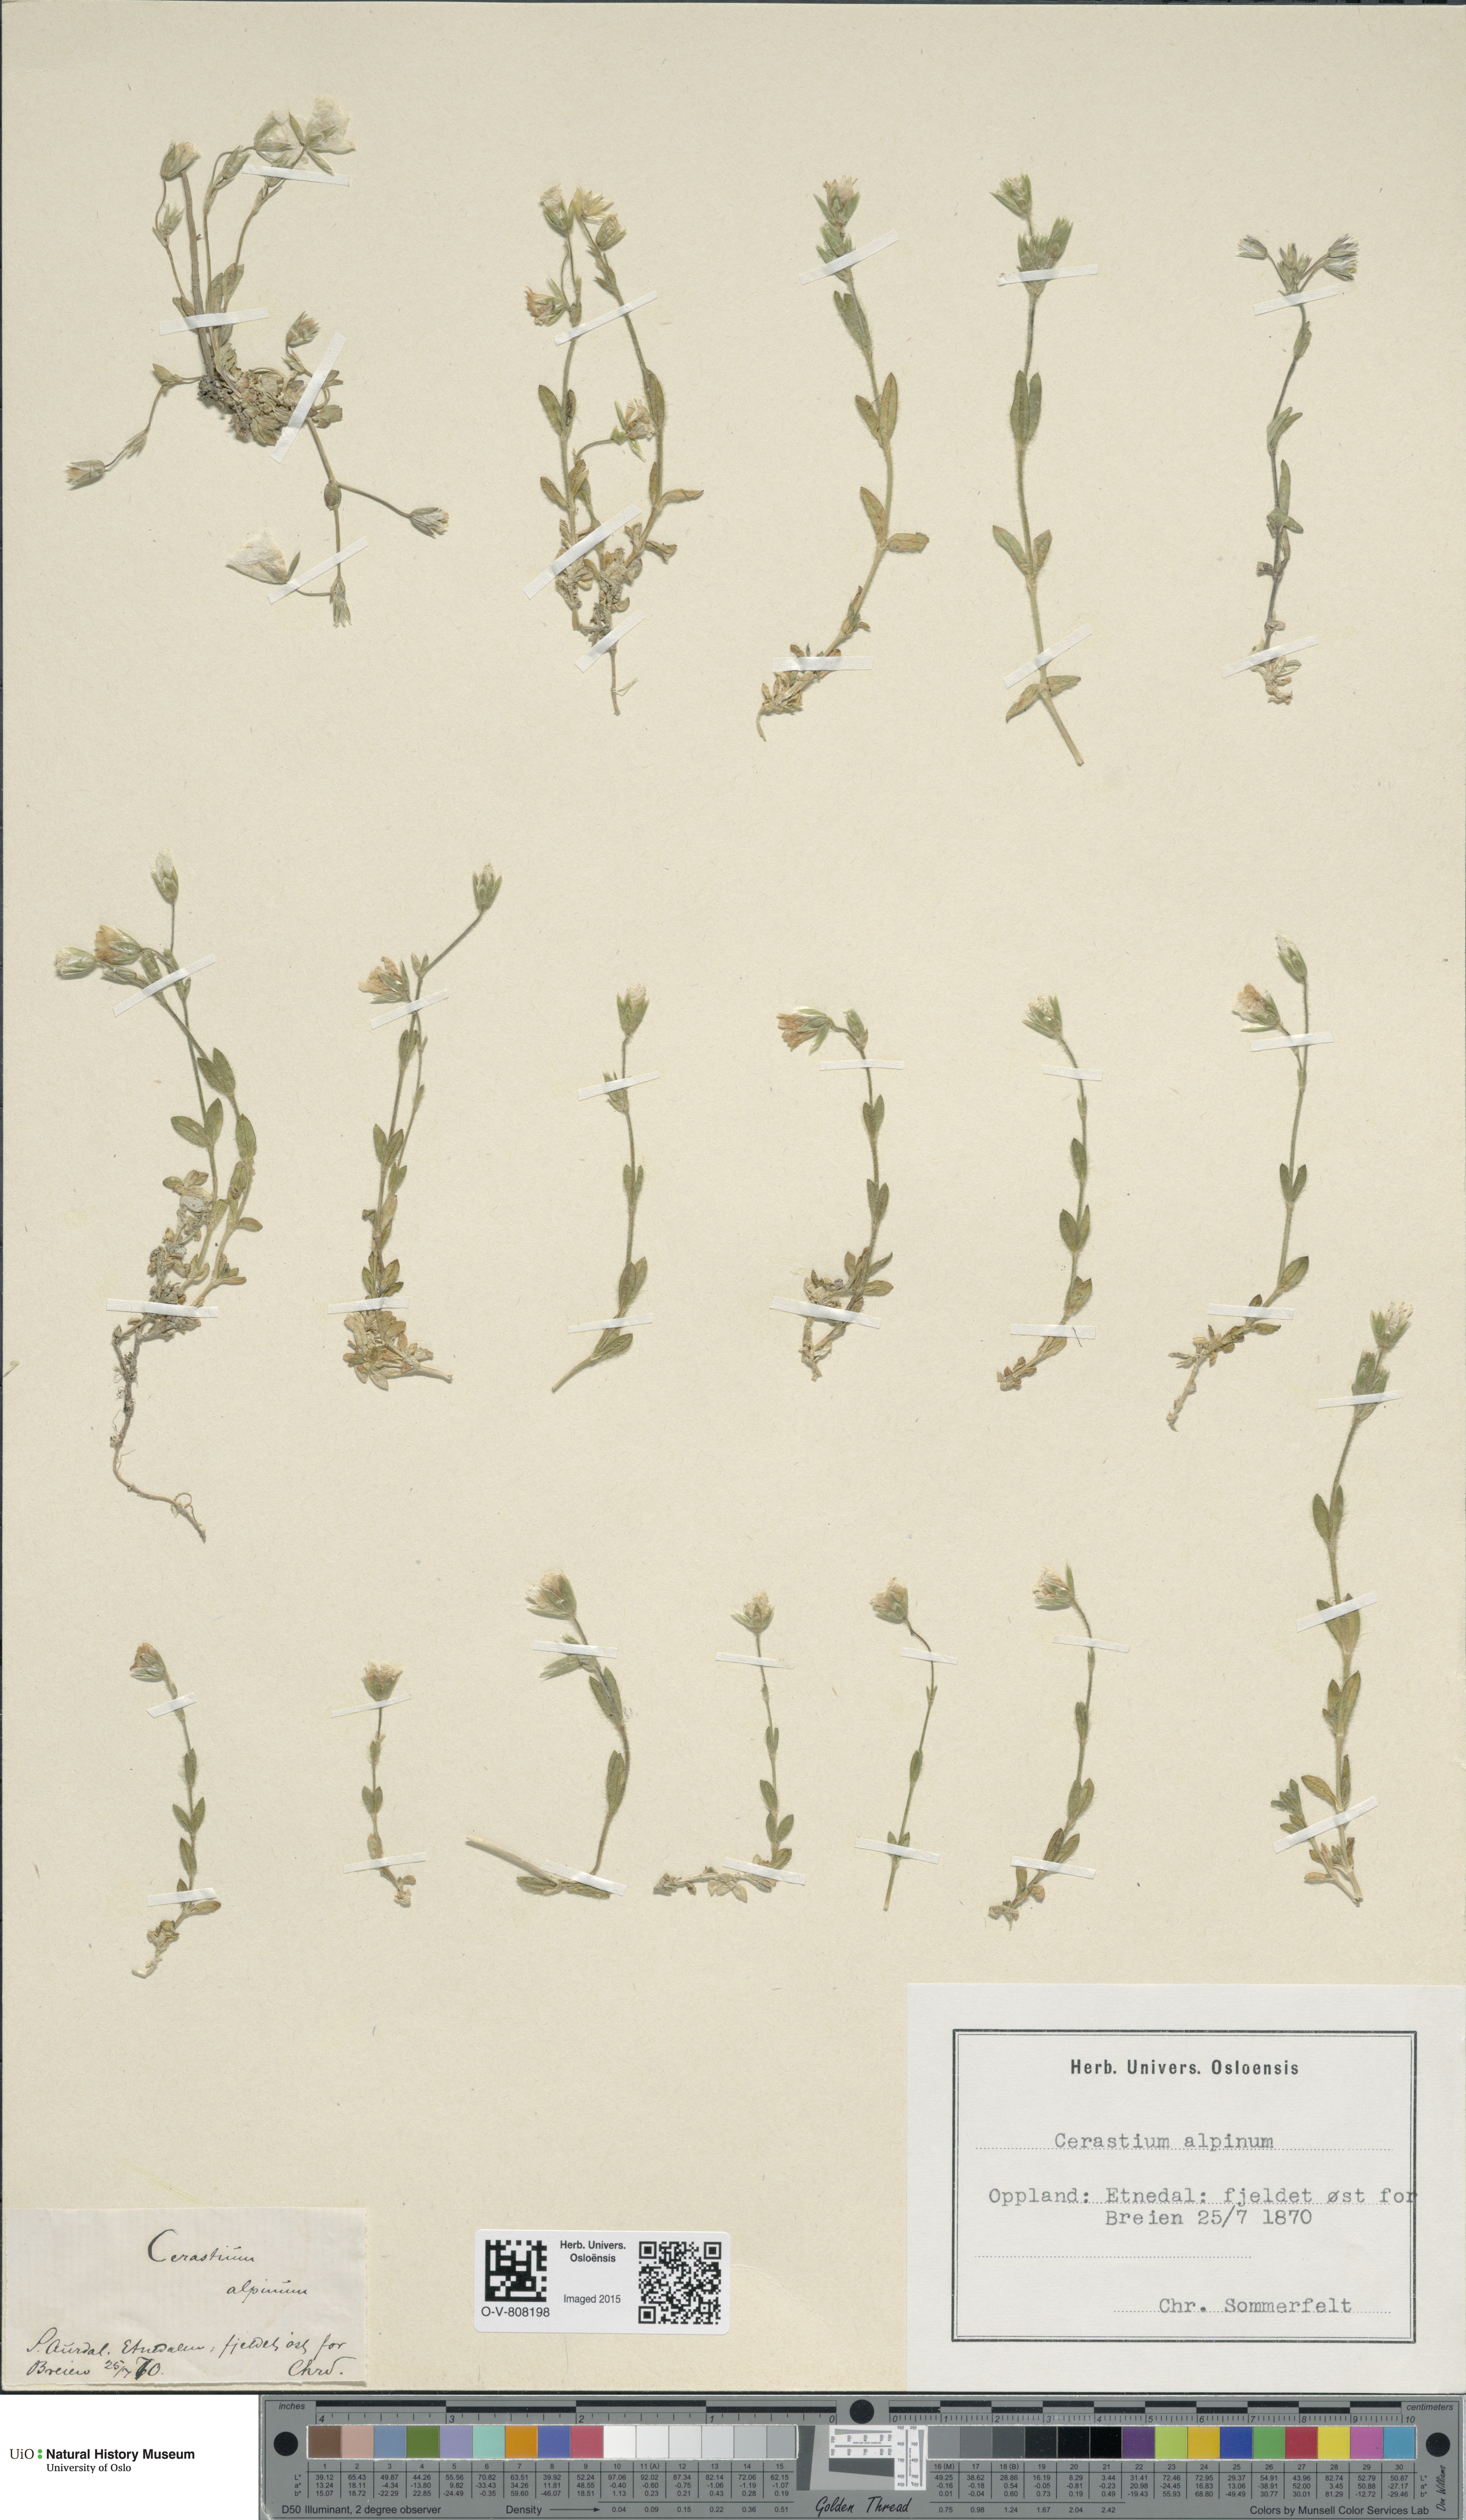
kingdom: Plantae
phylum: Tracheophyta
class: Magnoliopsida
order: Caryophyllales
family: Caryophyllaceae
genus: Cerastium
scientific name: Cerastium alpinum
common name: Alpine mouse-ear
